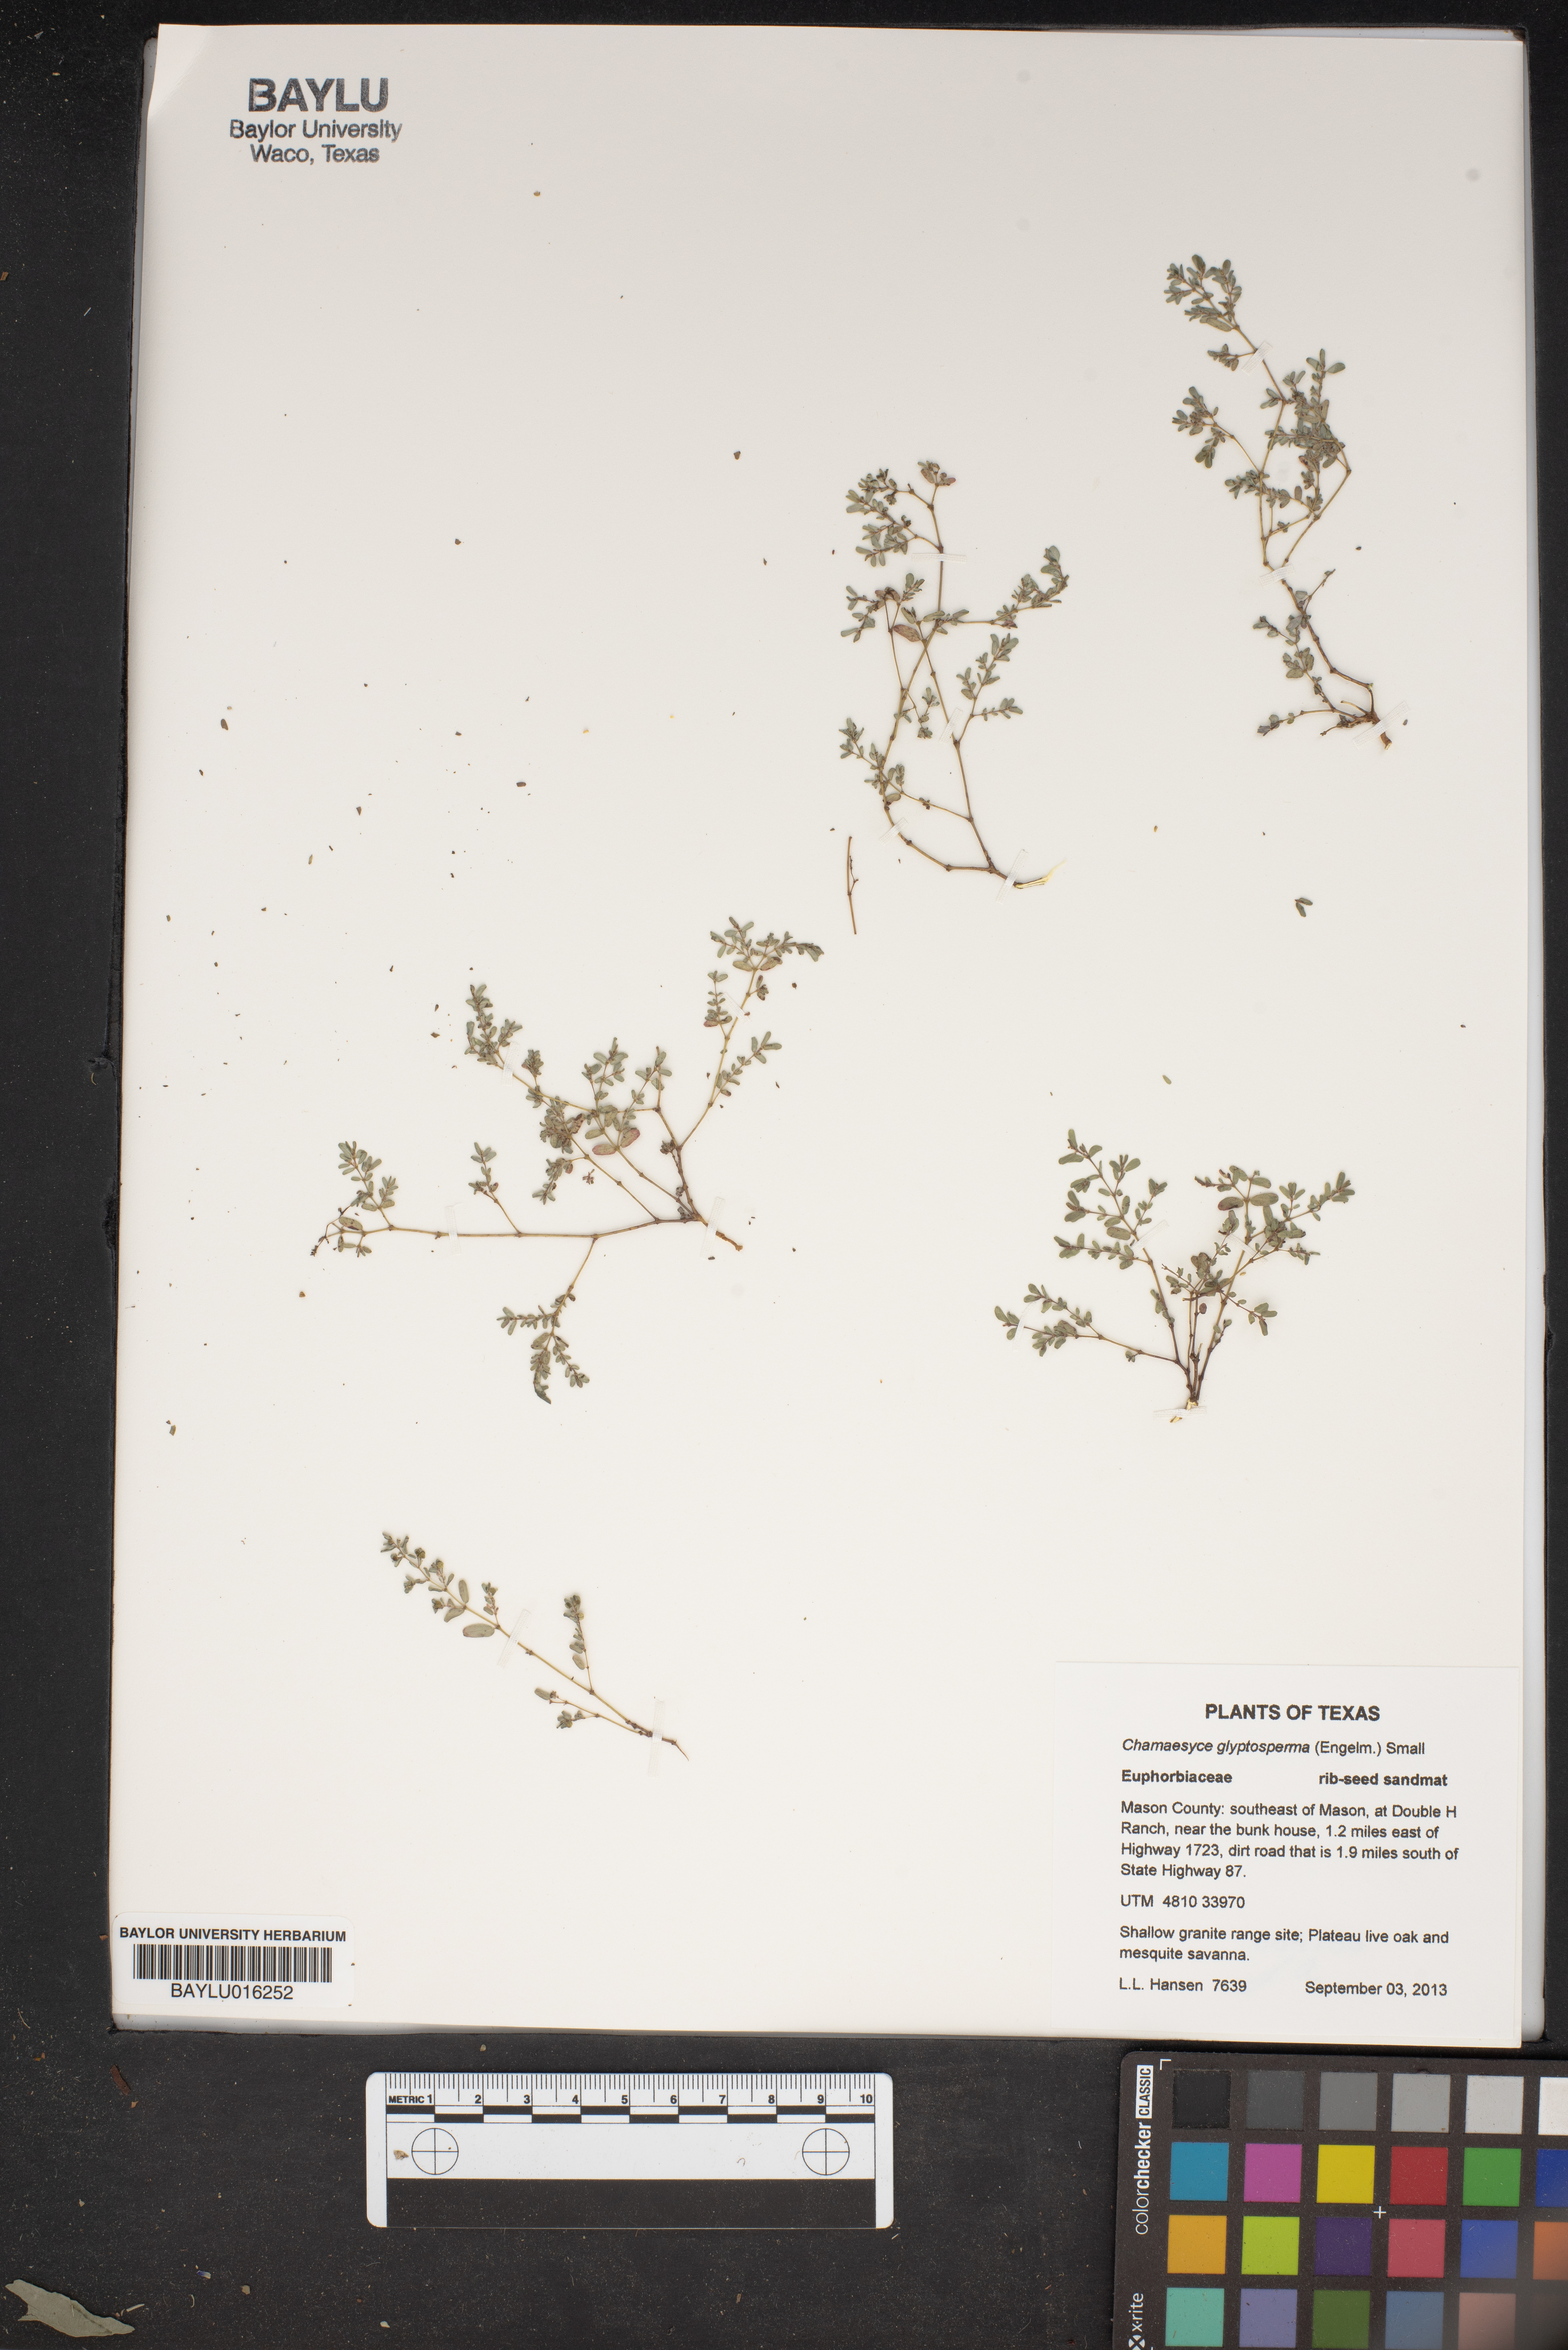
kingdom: Plantae
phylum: Tracheophyta
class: Magnoliopsida
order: Malpighiales
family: Euphorbiaceae
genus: Euphorbia
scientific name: Euphorbia glyptosperma
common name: Corrugate-seeded spurge
